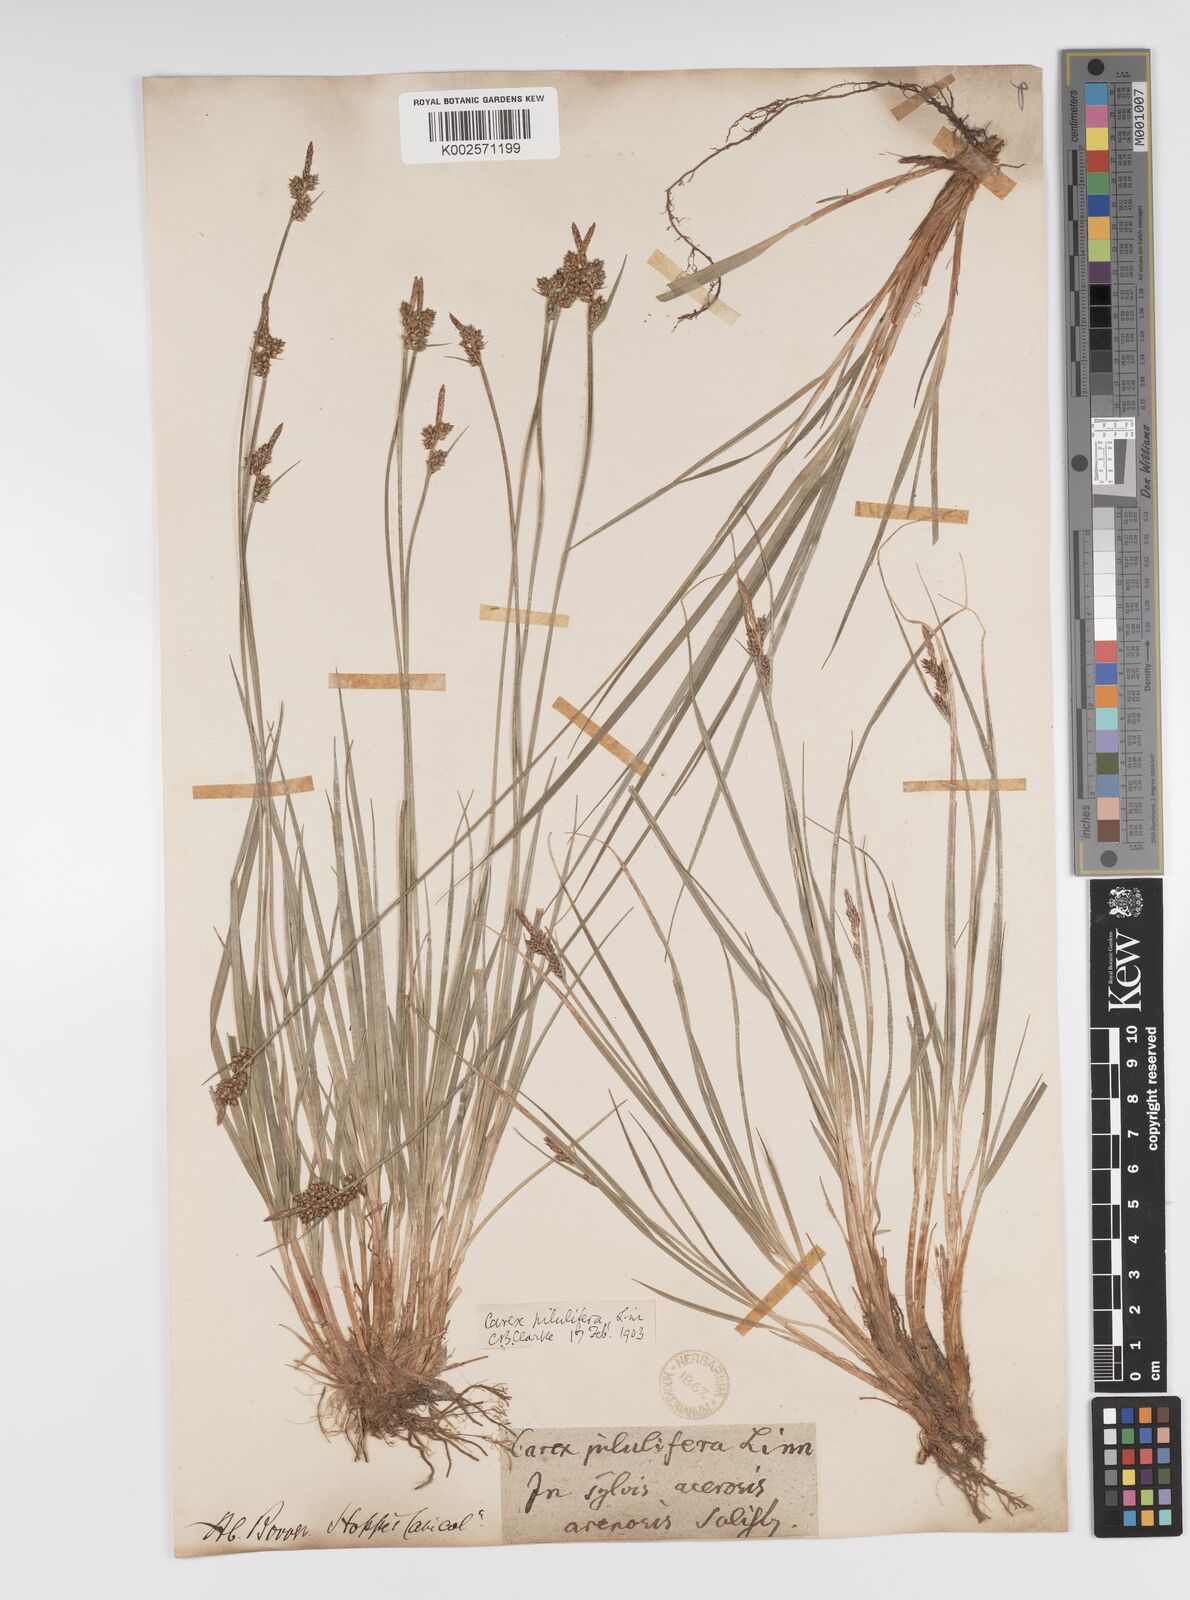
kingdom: Plantae
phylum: Tracheophyta
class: Liliopsida
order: Poales
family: Cyperaceae
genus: Carex
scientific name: Carex pilulifera
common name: Pill sedge
